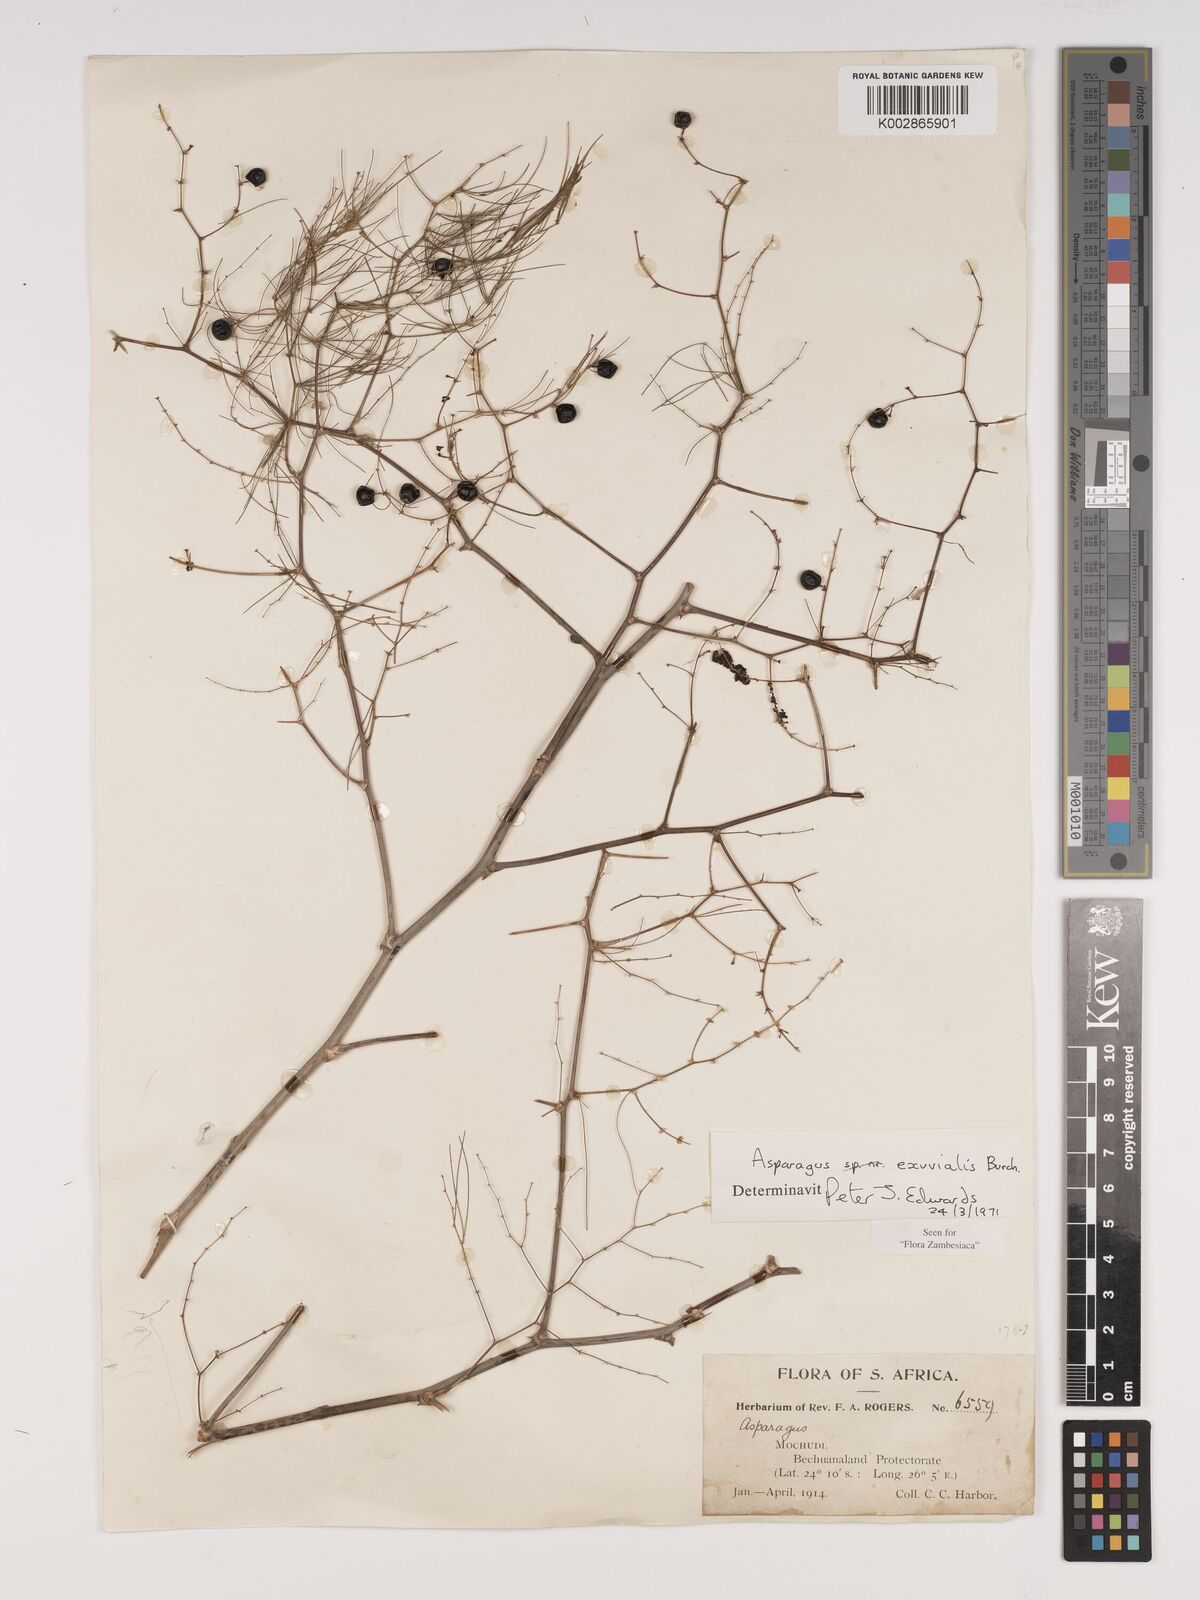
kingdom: Plantae
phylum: Tracheophyta
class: Liliopsida
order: Asparagales
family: Asparagaceae
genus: Asparagus
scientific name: Asparagus exuvialis
